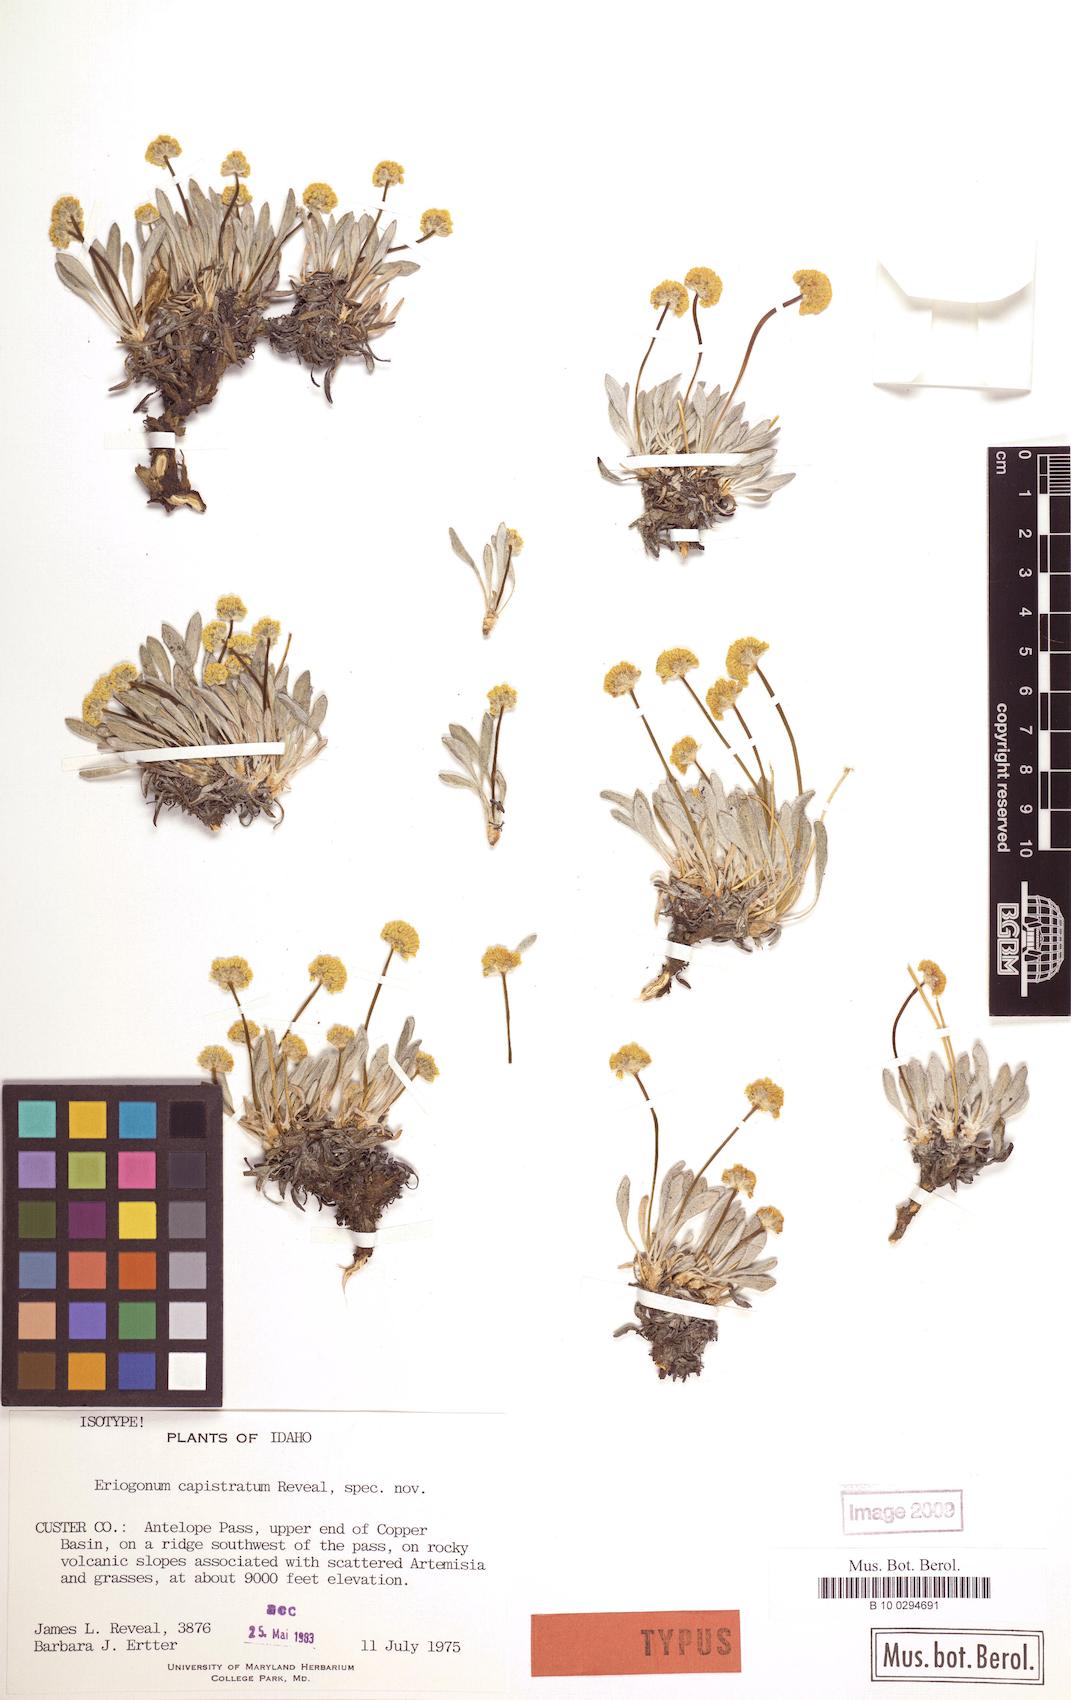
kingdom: Plantae
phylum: Tracheophyta
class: Magnoliopsida
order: Caryophyllales
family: Polygonaceae
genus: Eriogonum
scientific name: Eriogonum crosbyae
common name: Crosby's wild buckwheat
